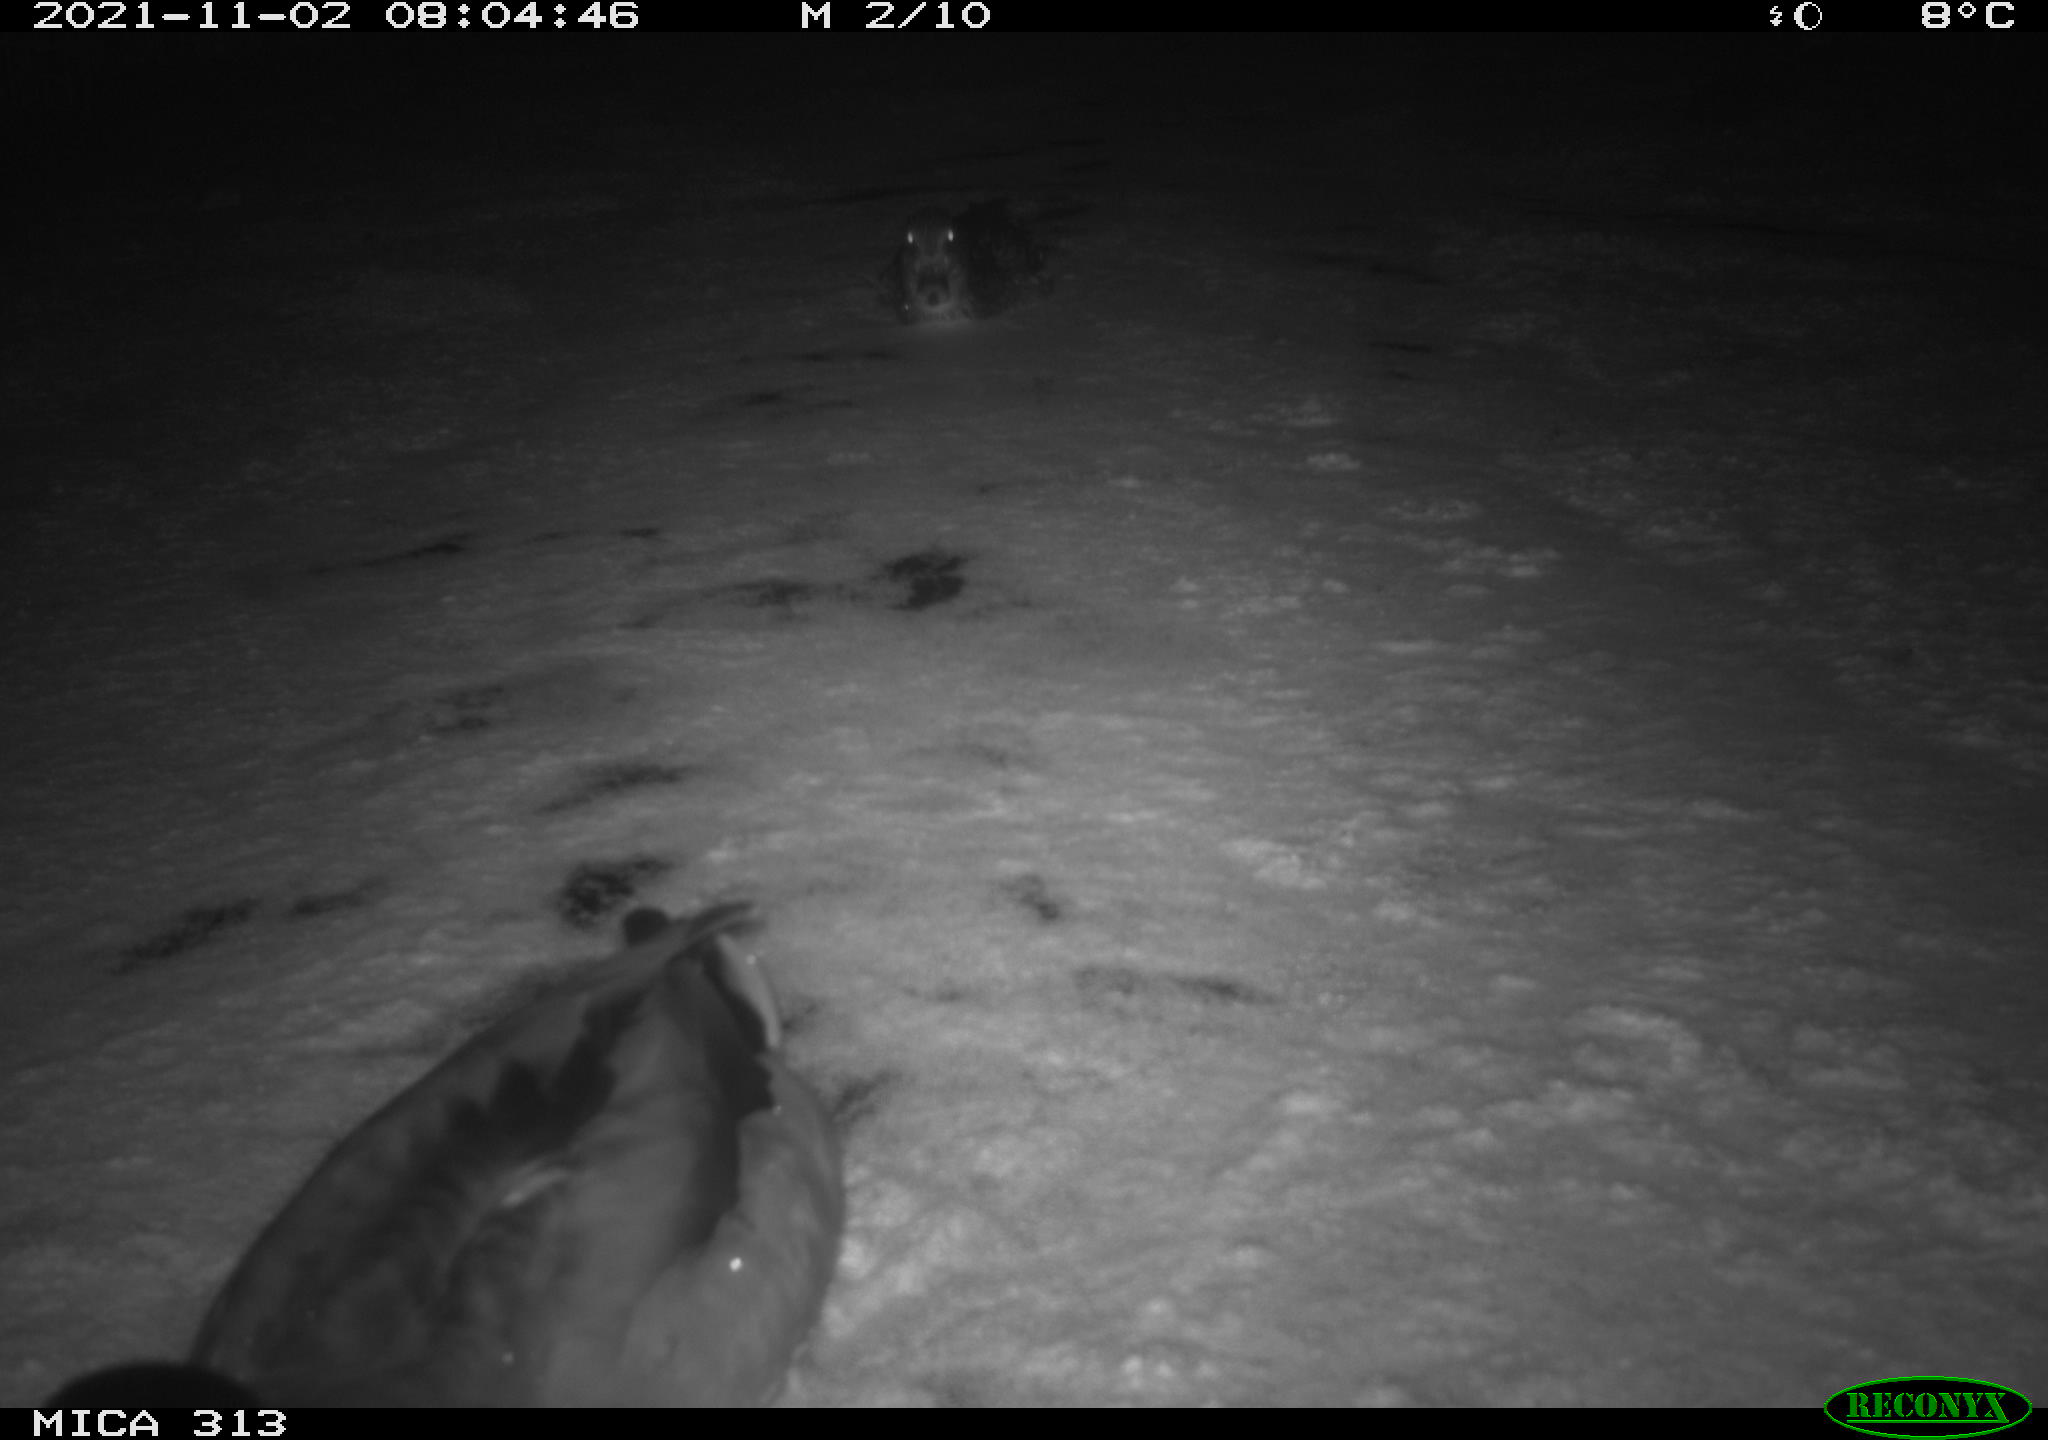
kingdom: Animalia
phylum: Chordata
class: Aves
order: Anseriformes
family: Anatidae
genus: Anas
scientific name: Anas platyrhynchos
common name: Mallard
